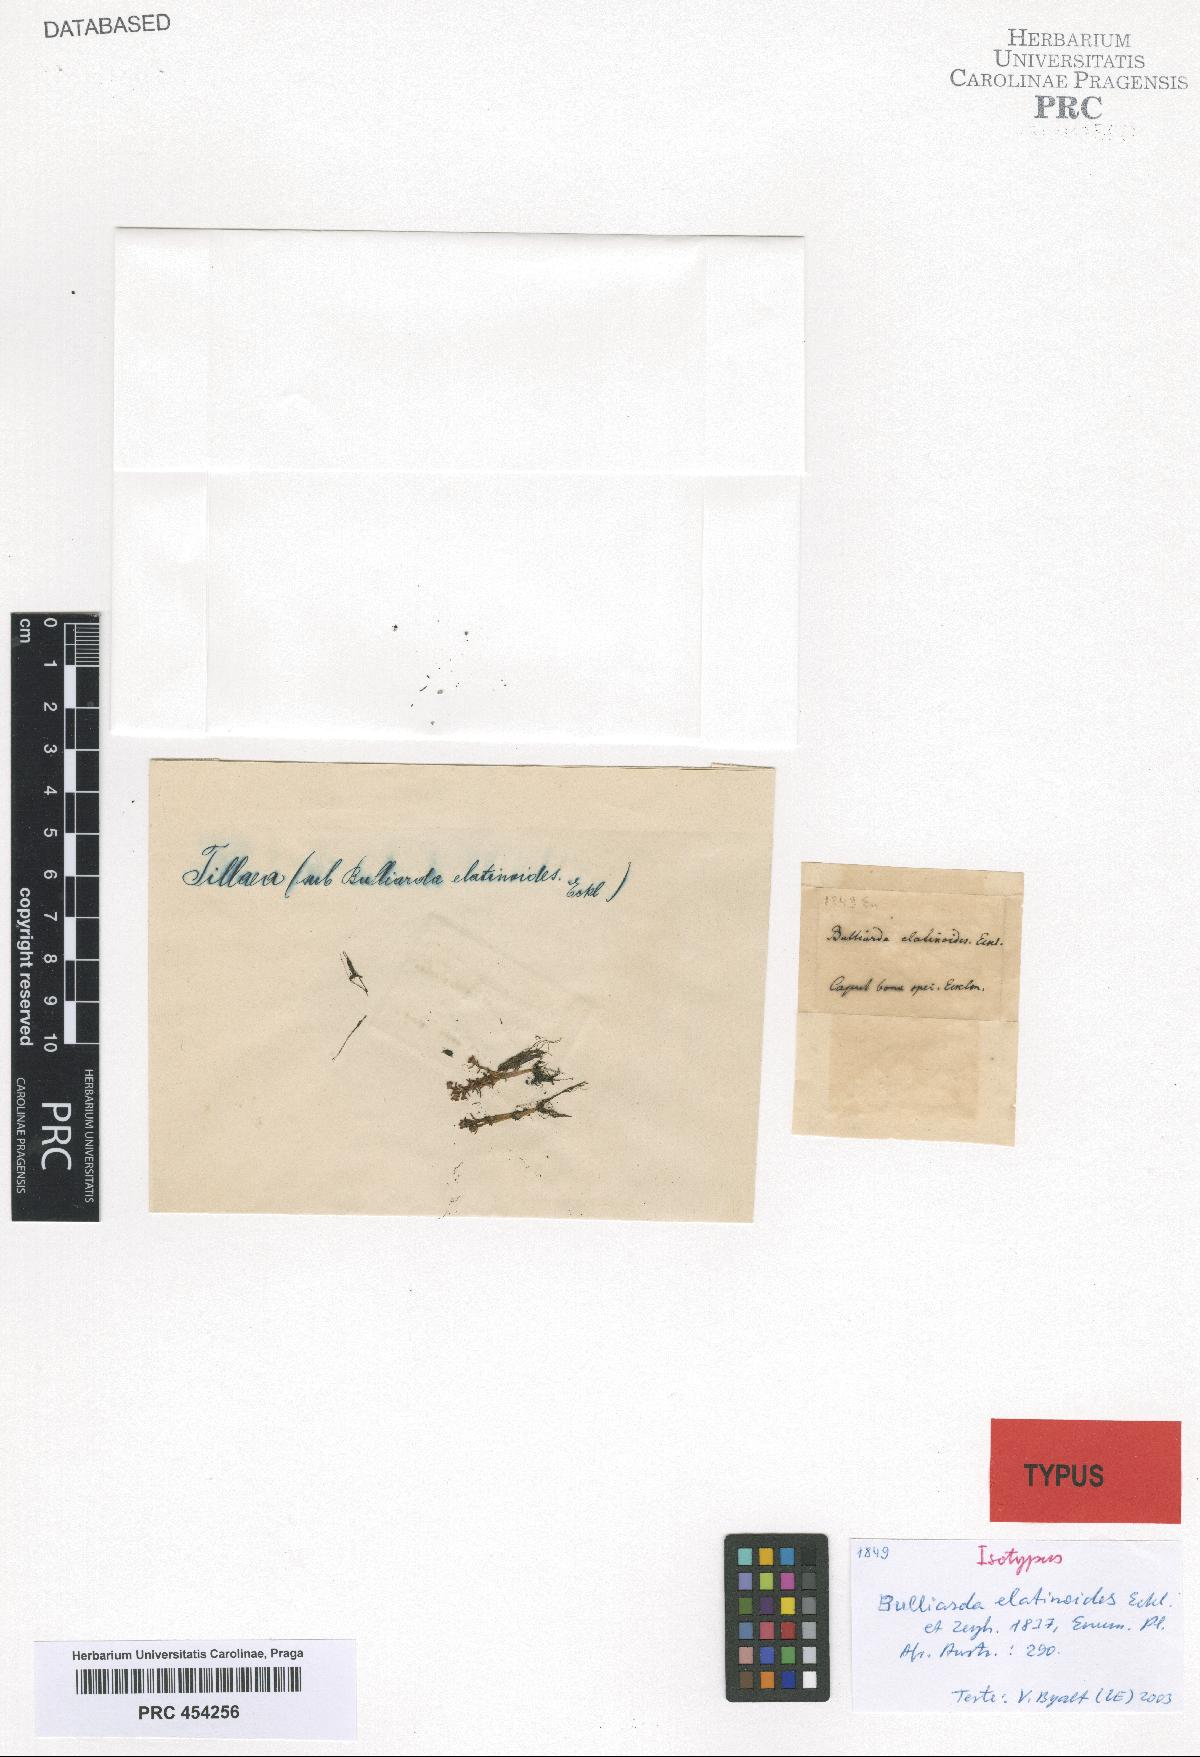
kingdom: Plantae
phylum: Tracheophyta
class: Magnoliopsida
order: Saxifragales
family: Crassulaceae
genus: Crassula
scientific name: Crassula elatinoides
